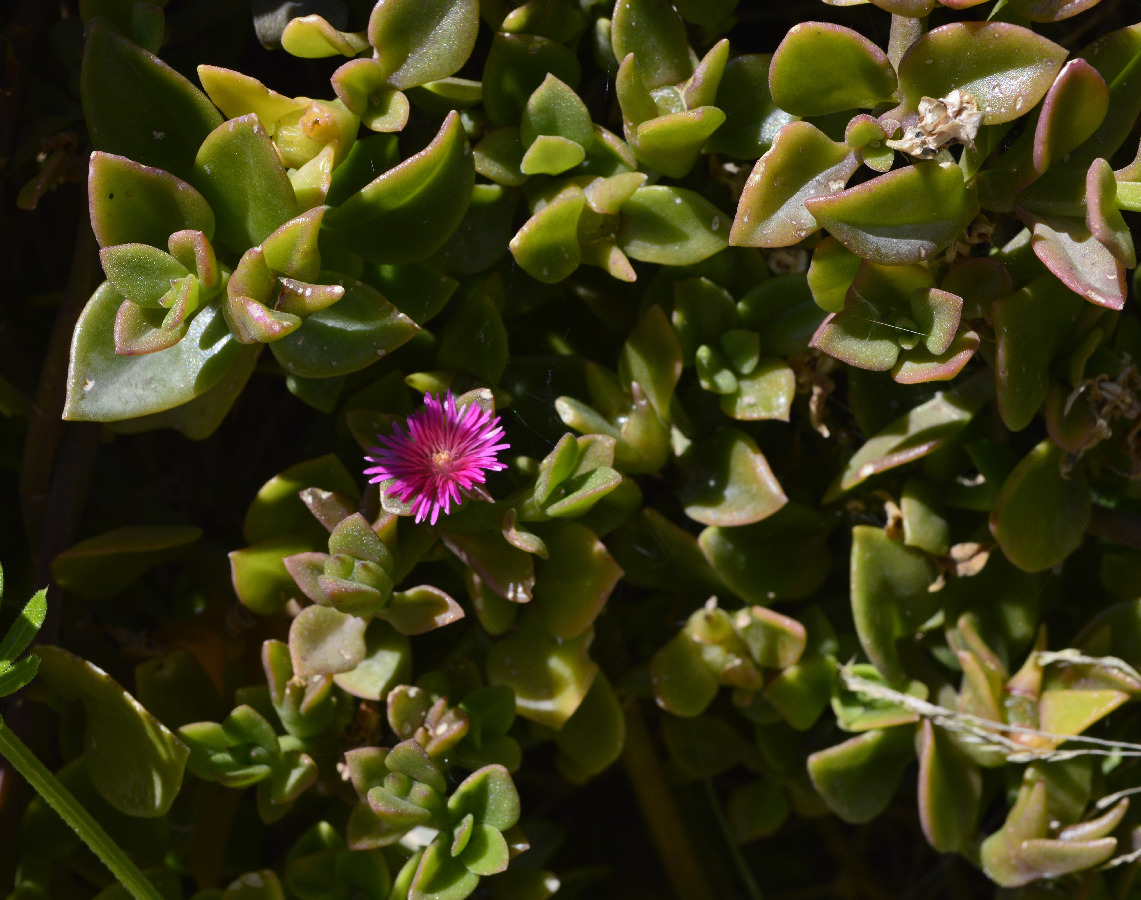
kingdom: Plantae
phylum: Tracheophyta
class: Magnoliopsida
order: Caryophyllales
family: Aizoaceae
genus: Mesembryanthemum
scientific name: Mesembryanthemum cordifolium
